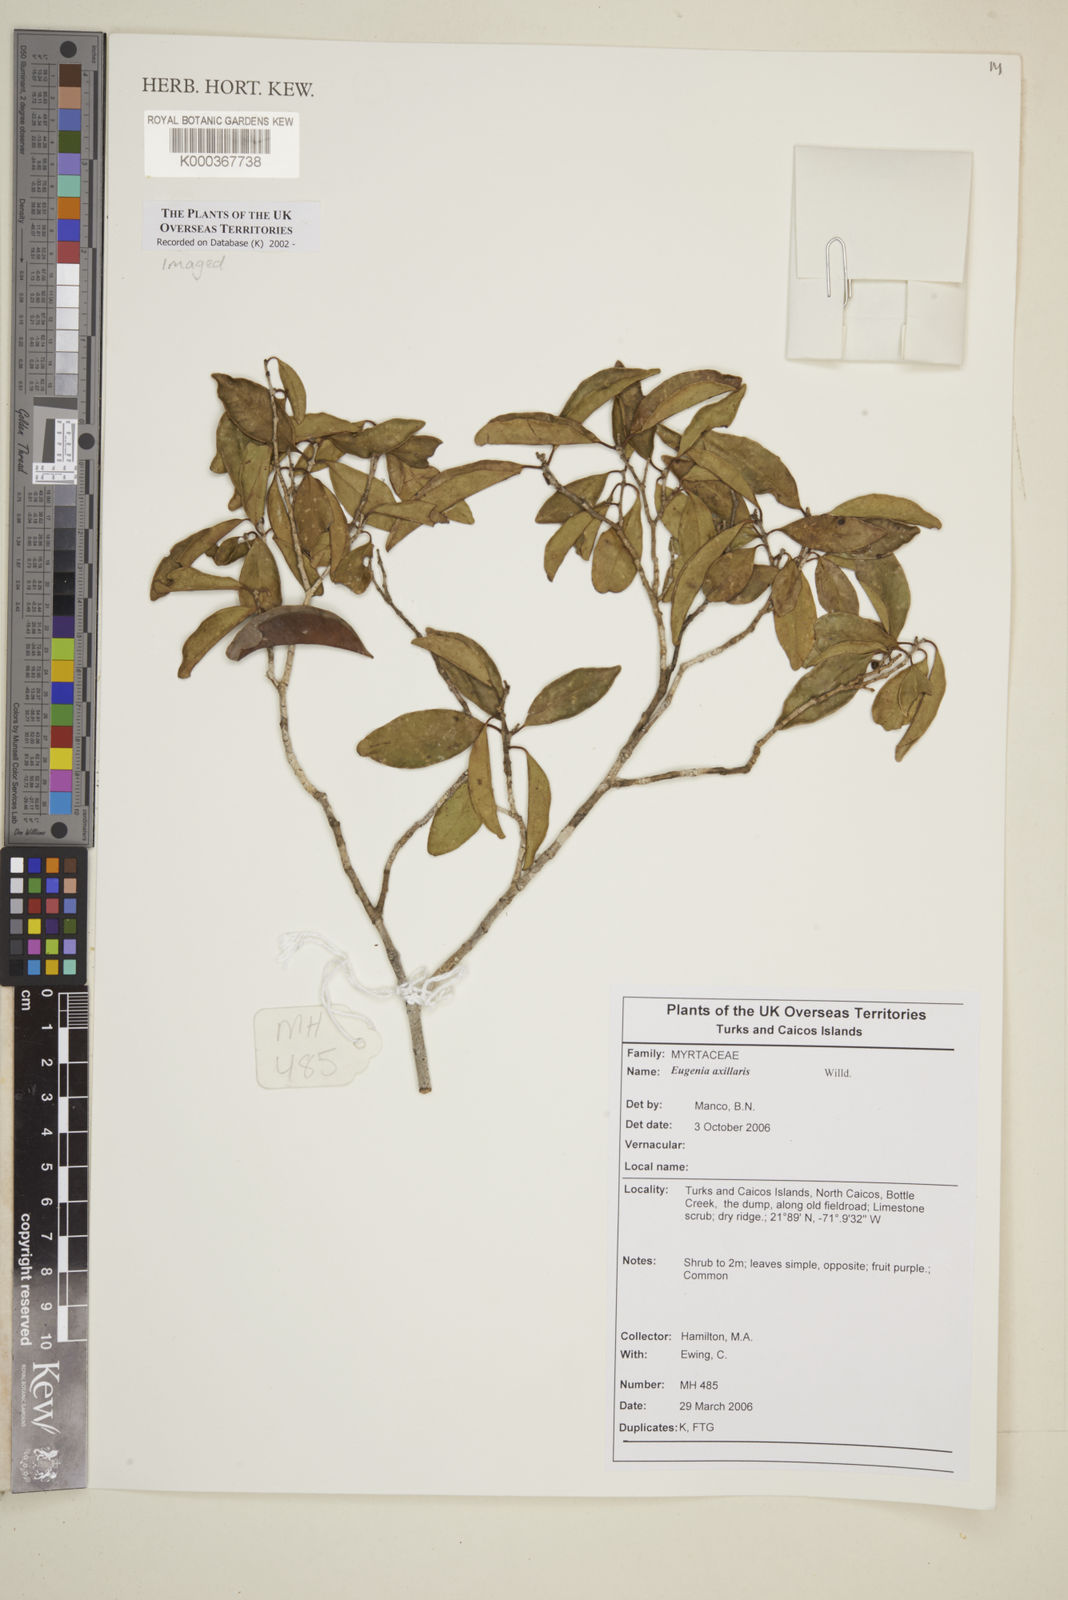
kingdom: Plantae
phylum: Tracheophyta
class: Magnoliopsida
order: Myrtales
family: Myrtaceae
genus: Eugenia
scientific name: Eugenia axillaris
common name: Choaky berry
